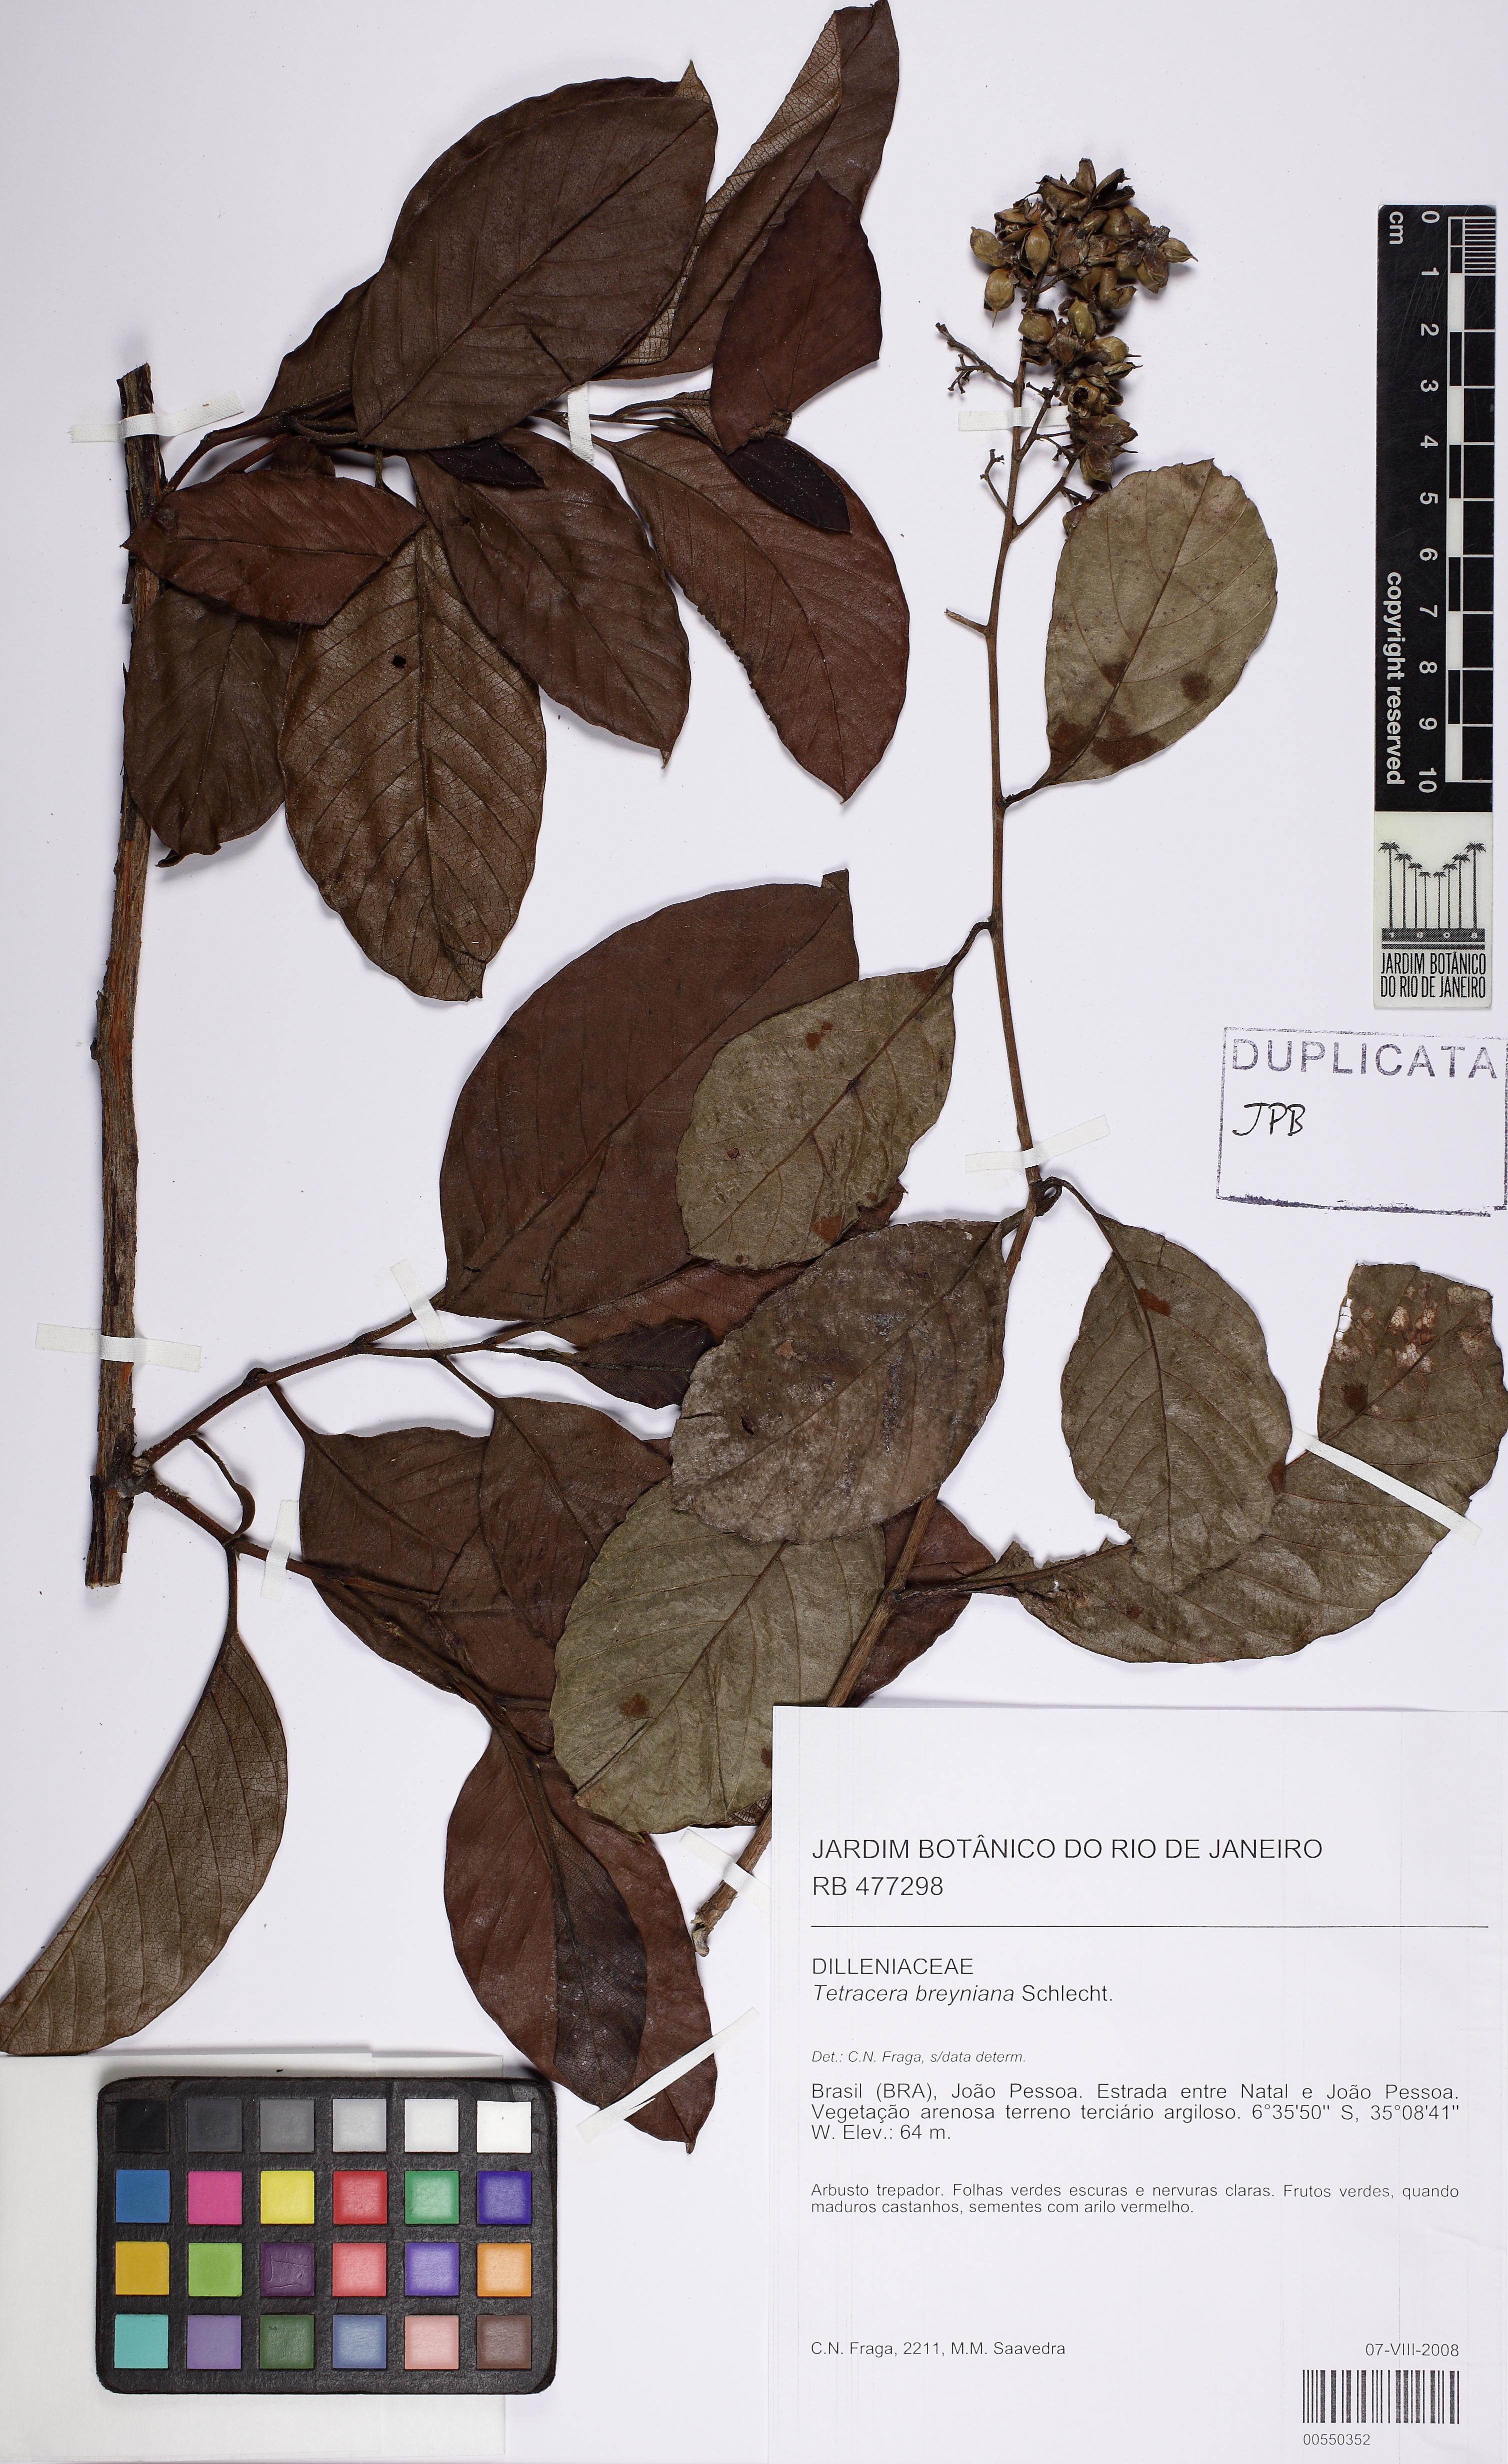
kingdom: Plantae
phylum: Tracheophyta
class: Magnoliopsida
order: Dilleniales
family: Dilleniaceae
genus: Tetracera
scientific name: Tetracera breyniana
